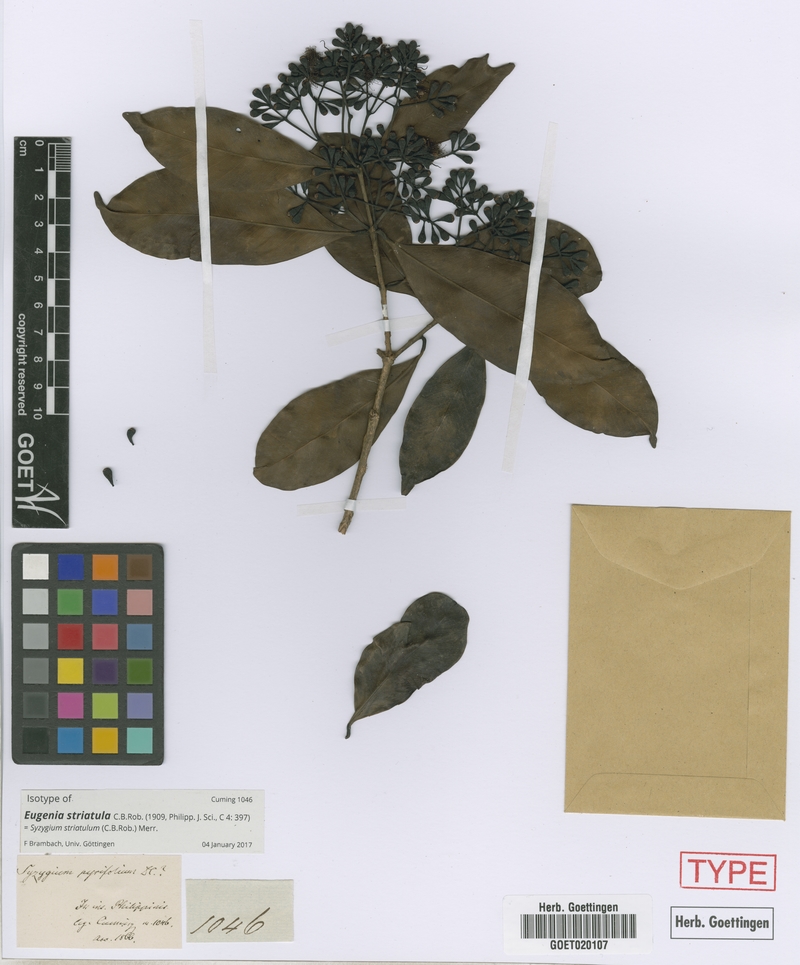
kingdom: Plantae
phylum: Tracheophyta
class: Magnoliopsida
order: Myrtales
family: Myrtaceae
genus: Syzygium
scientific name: Syzygium striatulum
